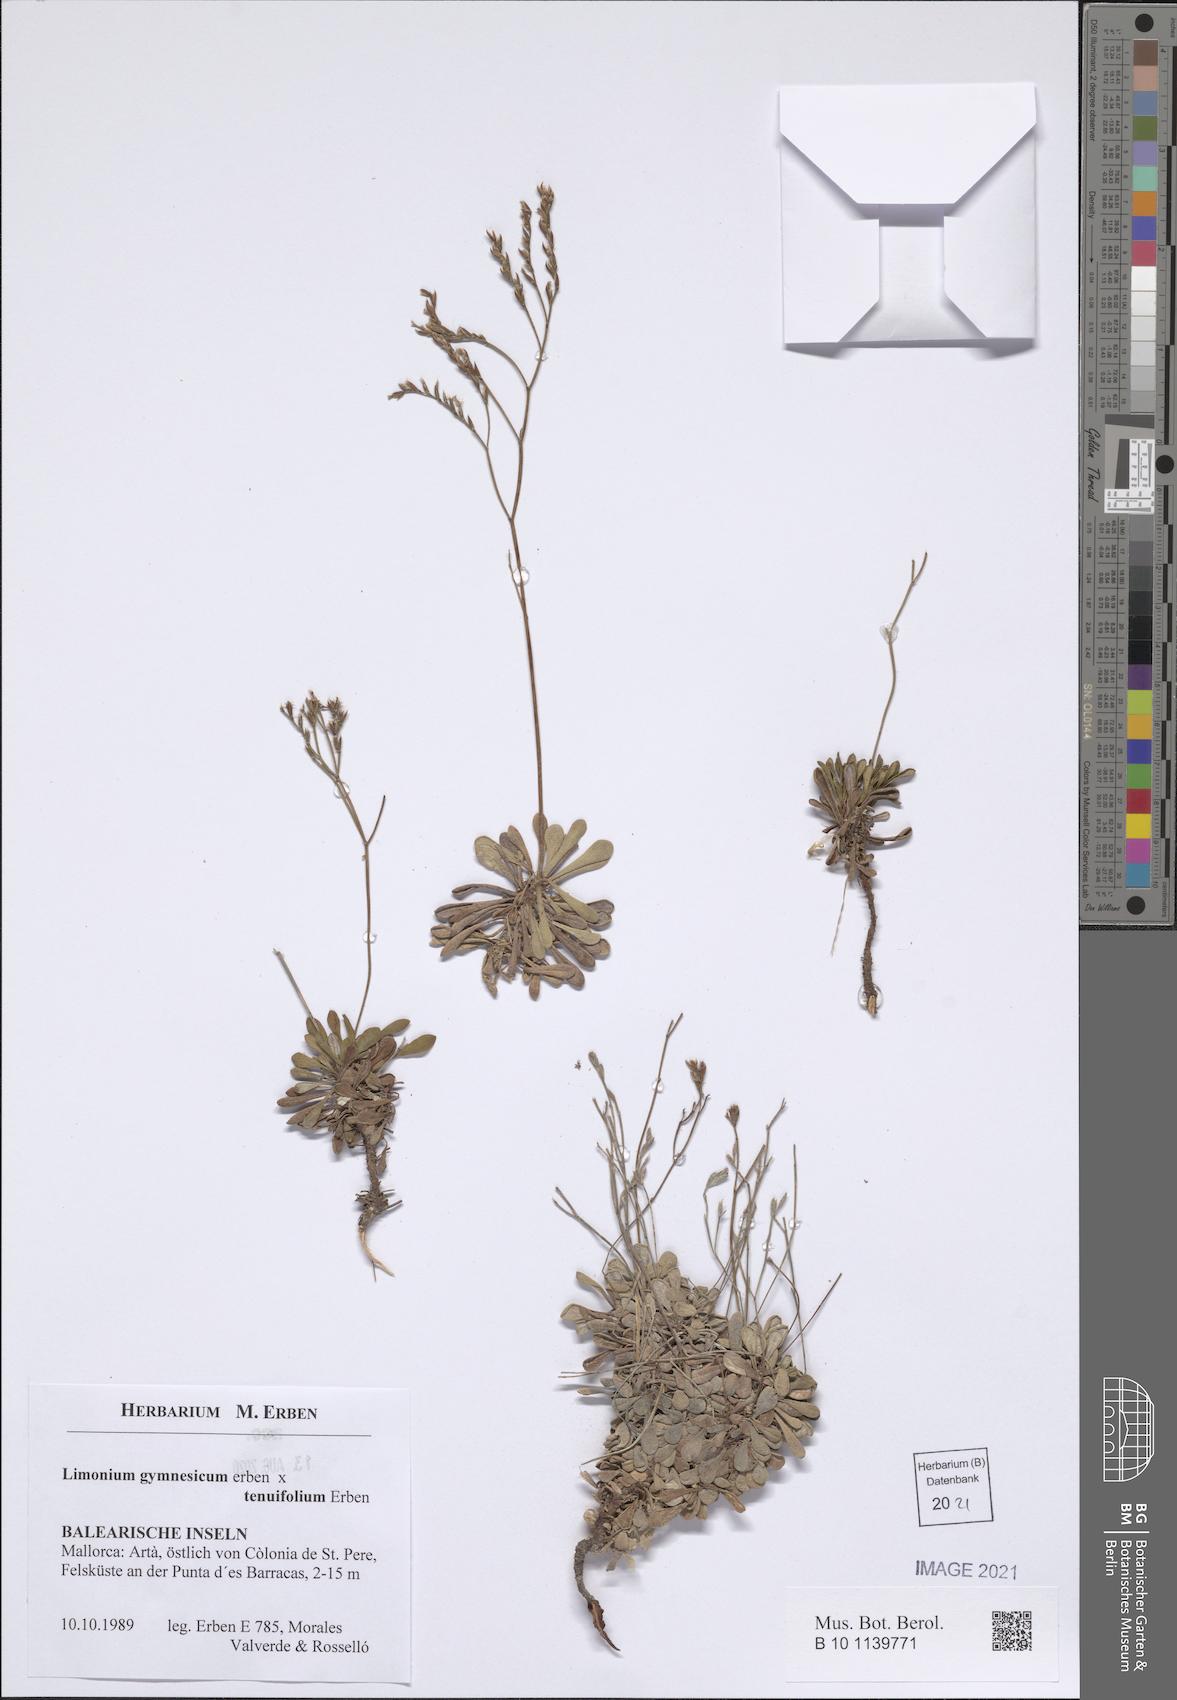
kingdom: Plantae
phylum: Tracheophyta
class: Magnoliopsida
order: Caryophyllales
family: Plumbaginaceae
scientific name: Plumbaginaceae
